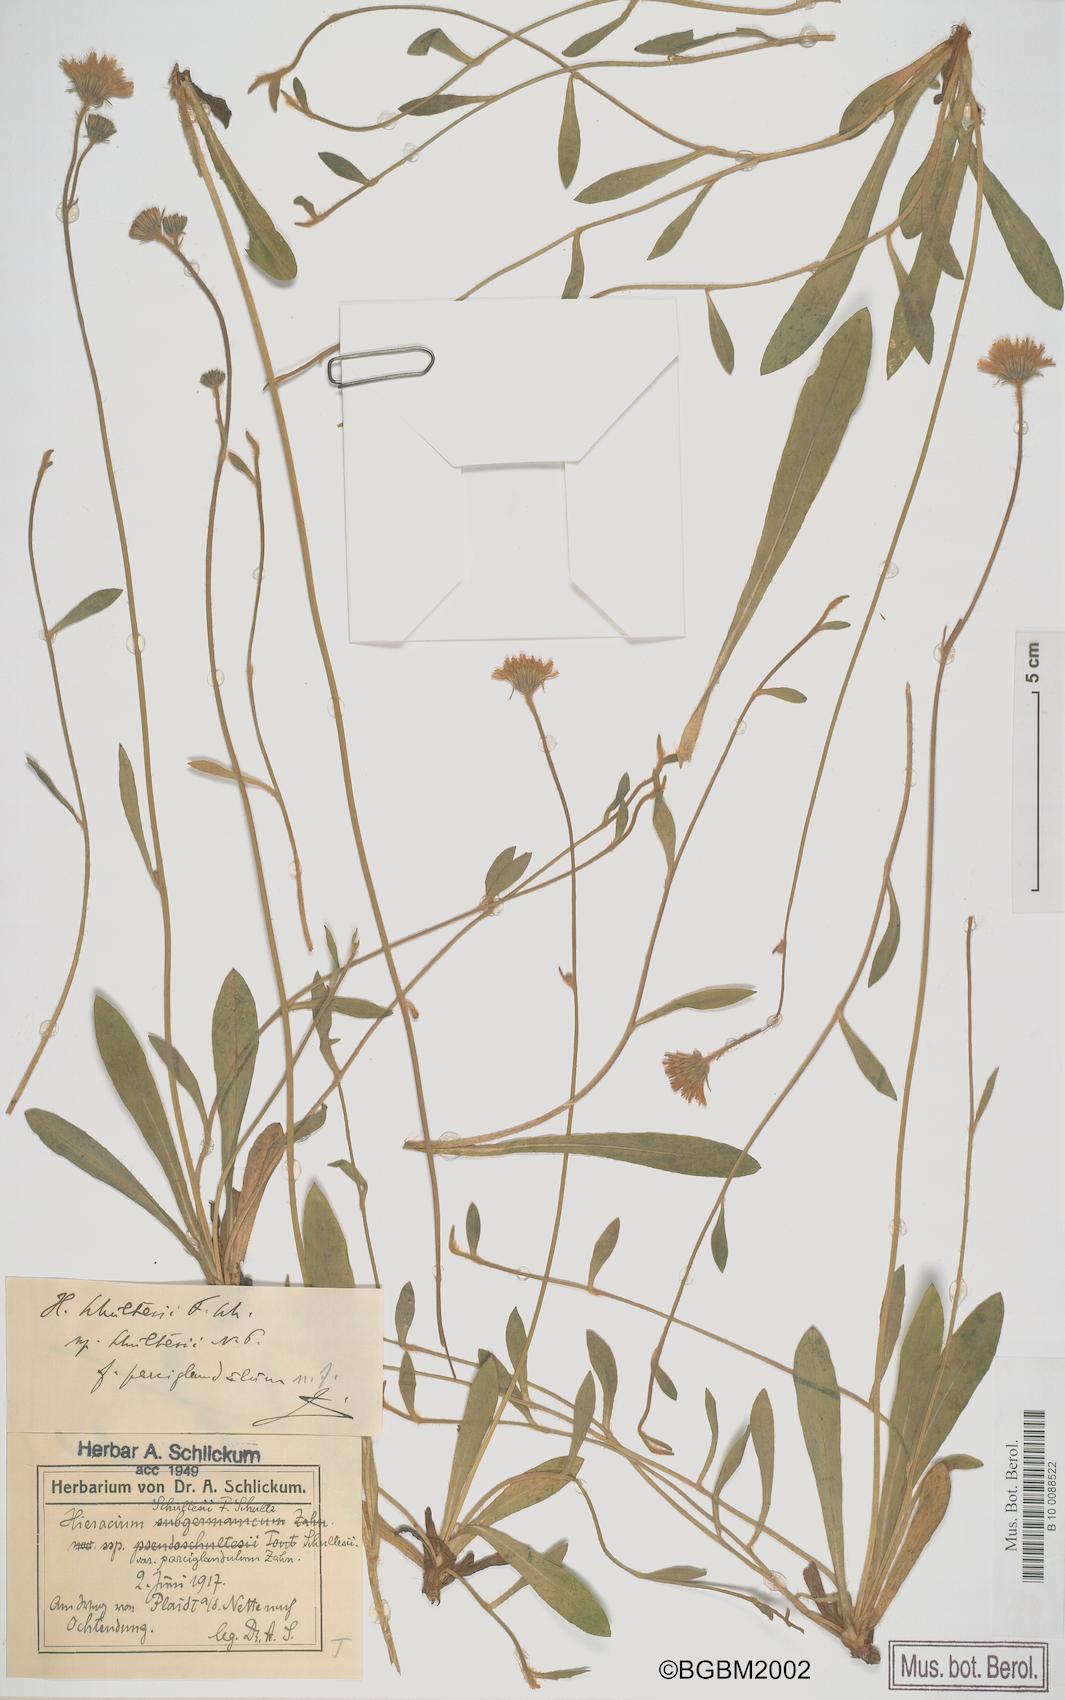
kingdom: Plantae
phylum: Tracheophyta
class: Magnoliopsida
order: Asterales
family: Asteraceae
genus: Pilosella
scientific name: Pilosella schultesii
